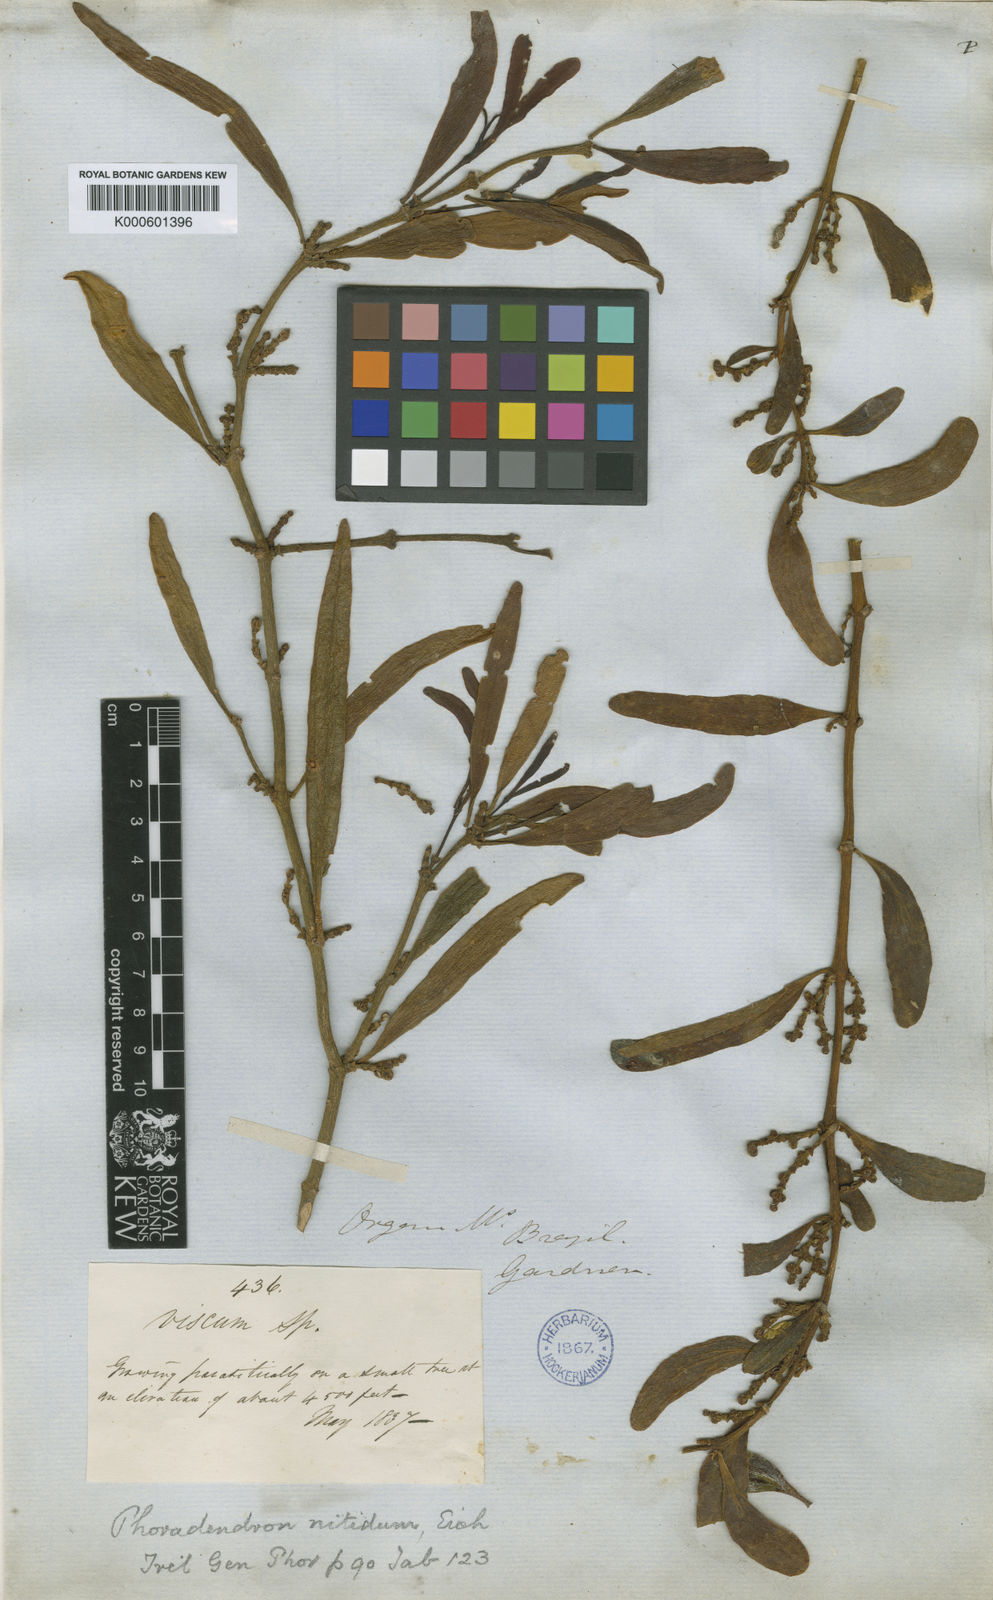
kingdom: Plantae
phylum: Tracheophyta
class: Magnoliopsida
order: Santalales
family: Viscaceae
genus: Phoradendron
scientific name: Phoradendron nitidum
